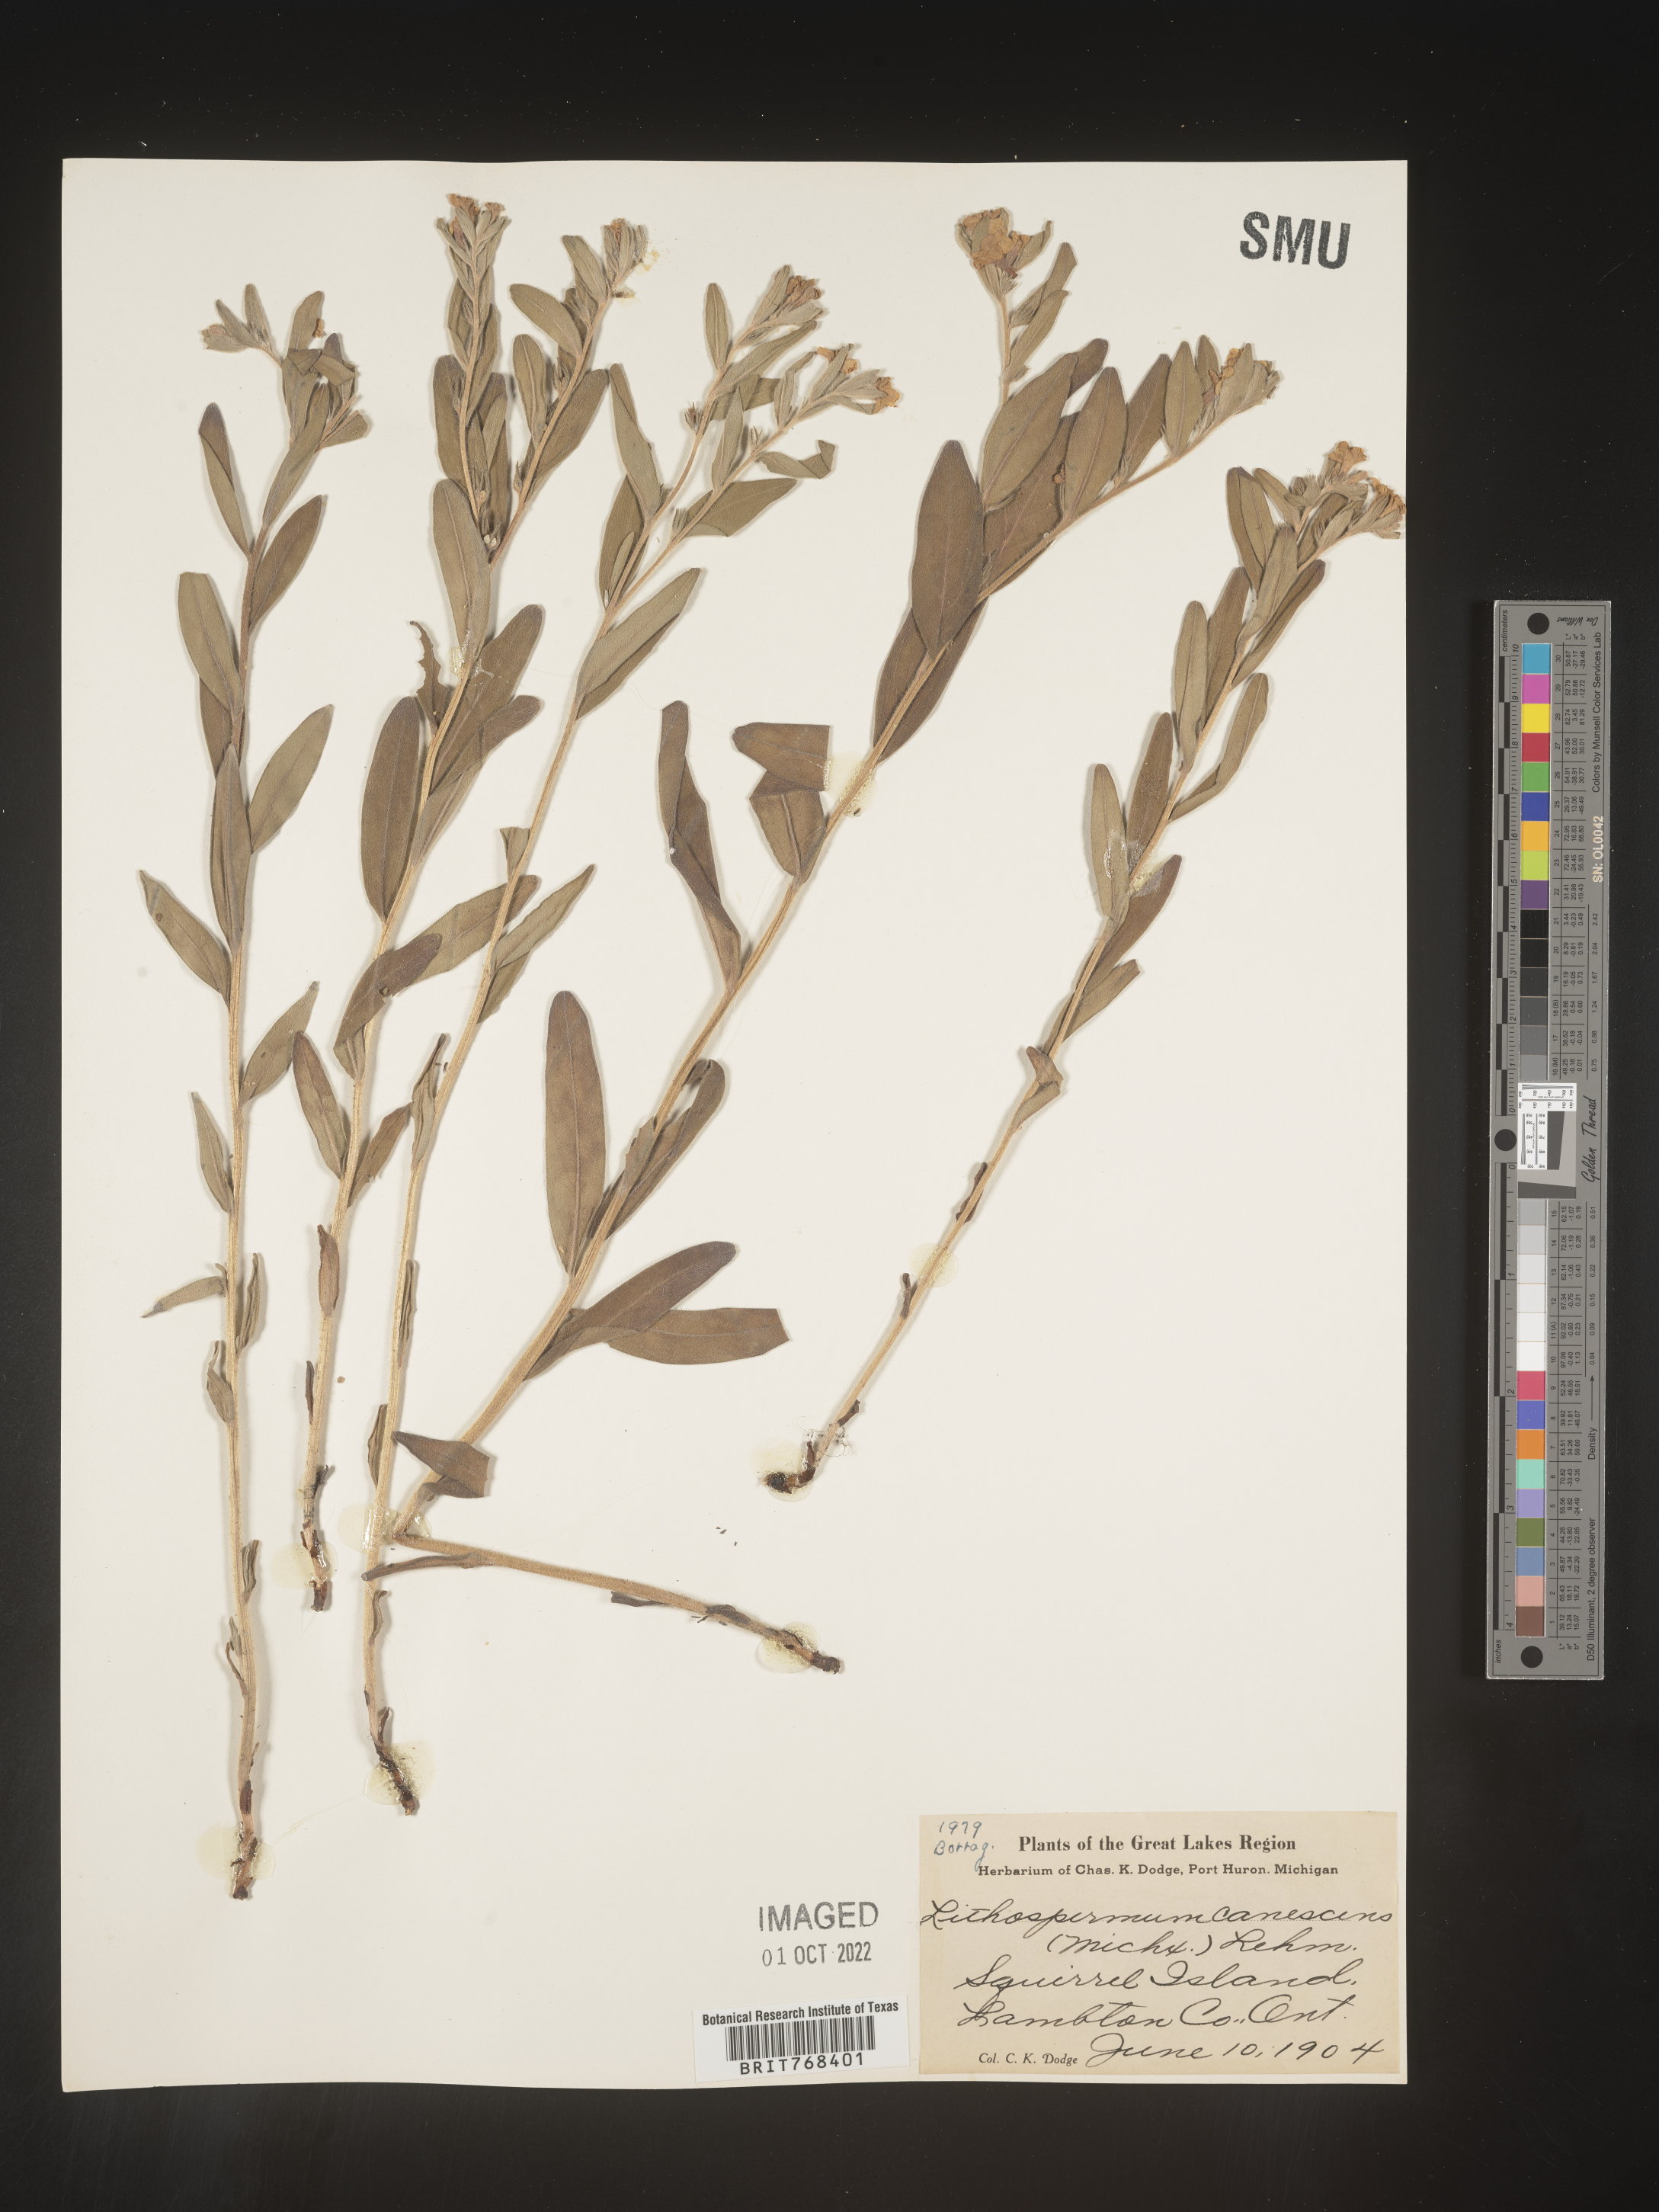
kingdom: Plantae
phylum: Tracheophyta
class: Magnoliopsida
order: Boraginales
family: Boraginaceae
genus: Lithospermum
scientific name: Lithospermum canescens
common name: Hoary puccoon
